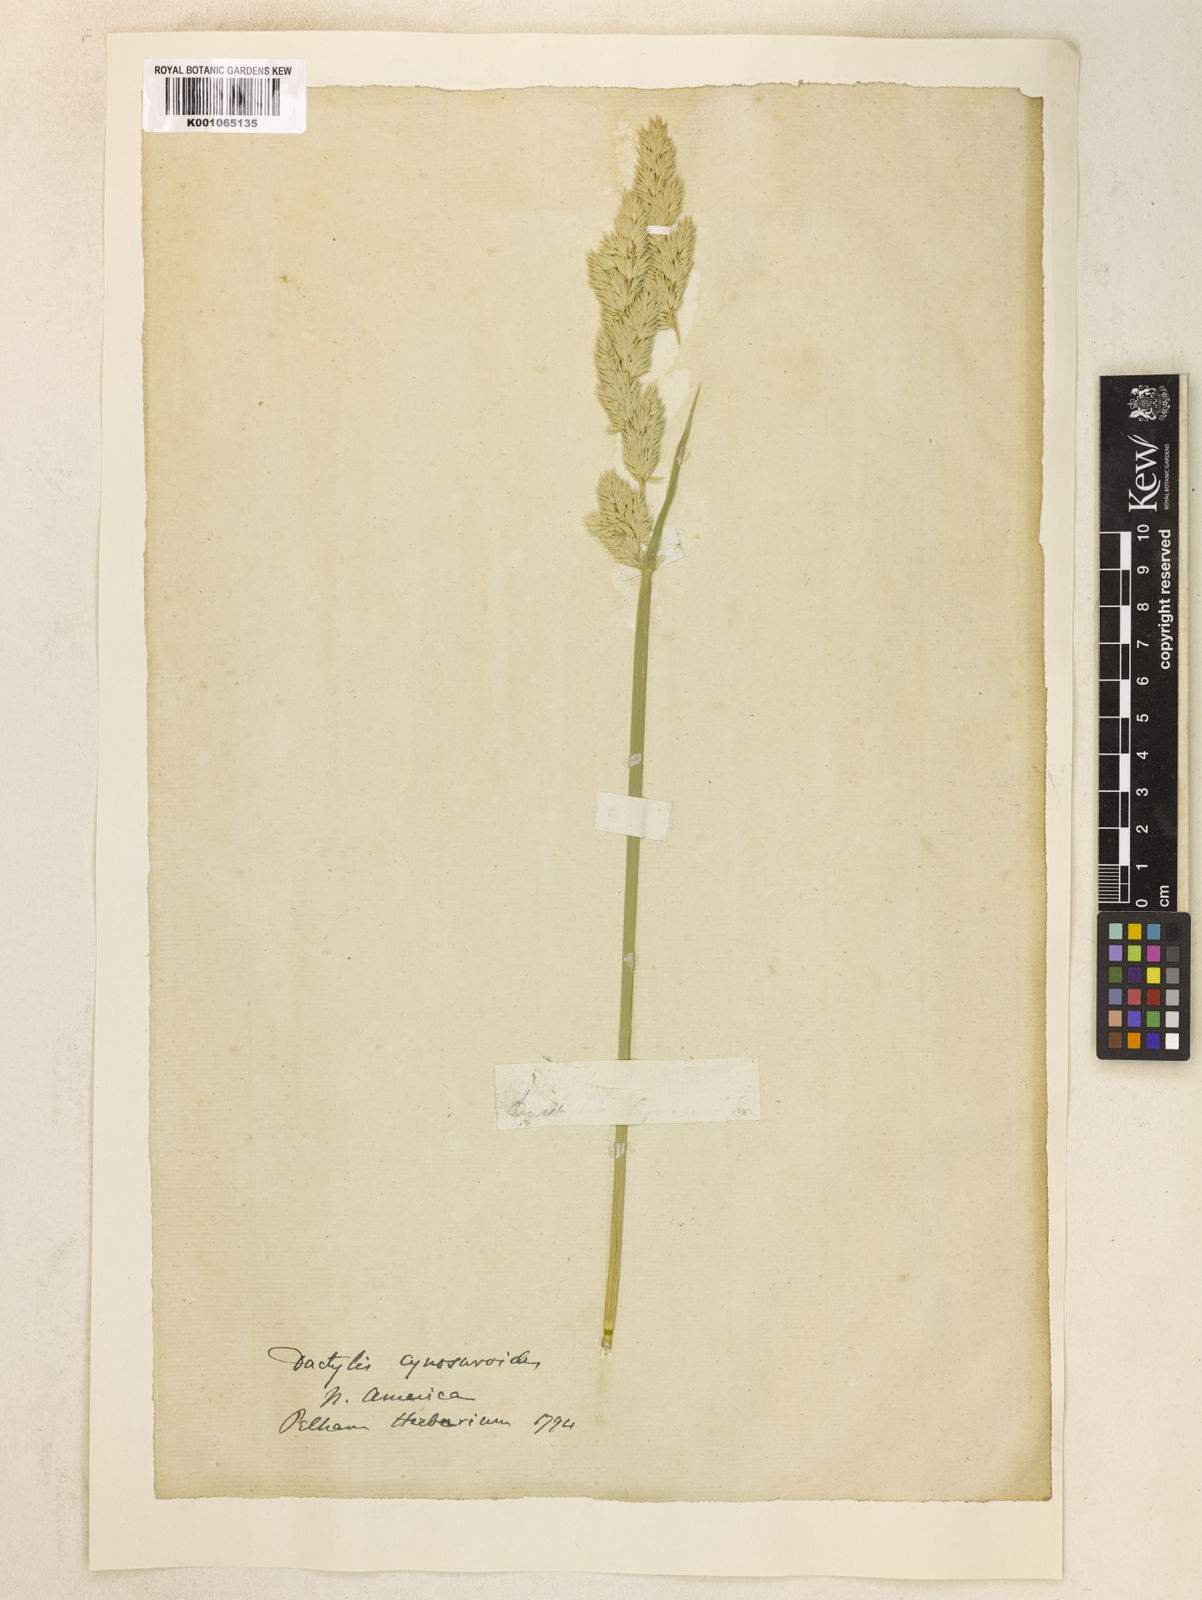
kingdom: Plantae
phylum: Tracheophyta
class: Liliopsida
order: Poales
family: Poaceae
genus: Dactylis
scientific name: Dactylis glomerata
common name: Orchardgrass
